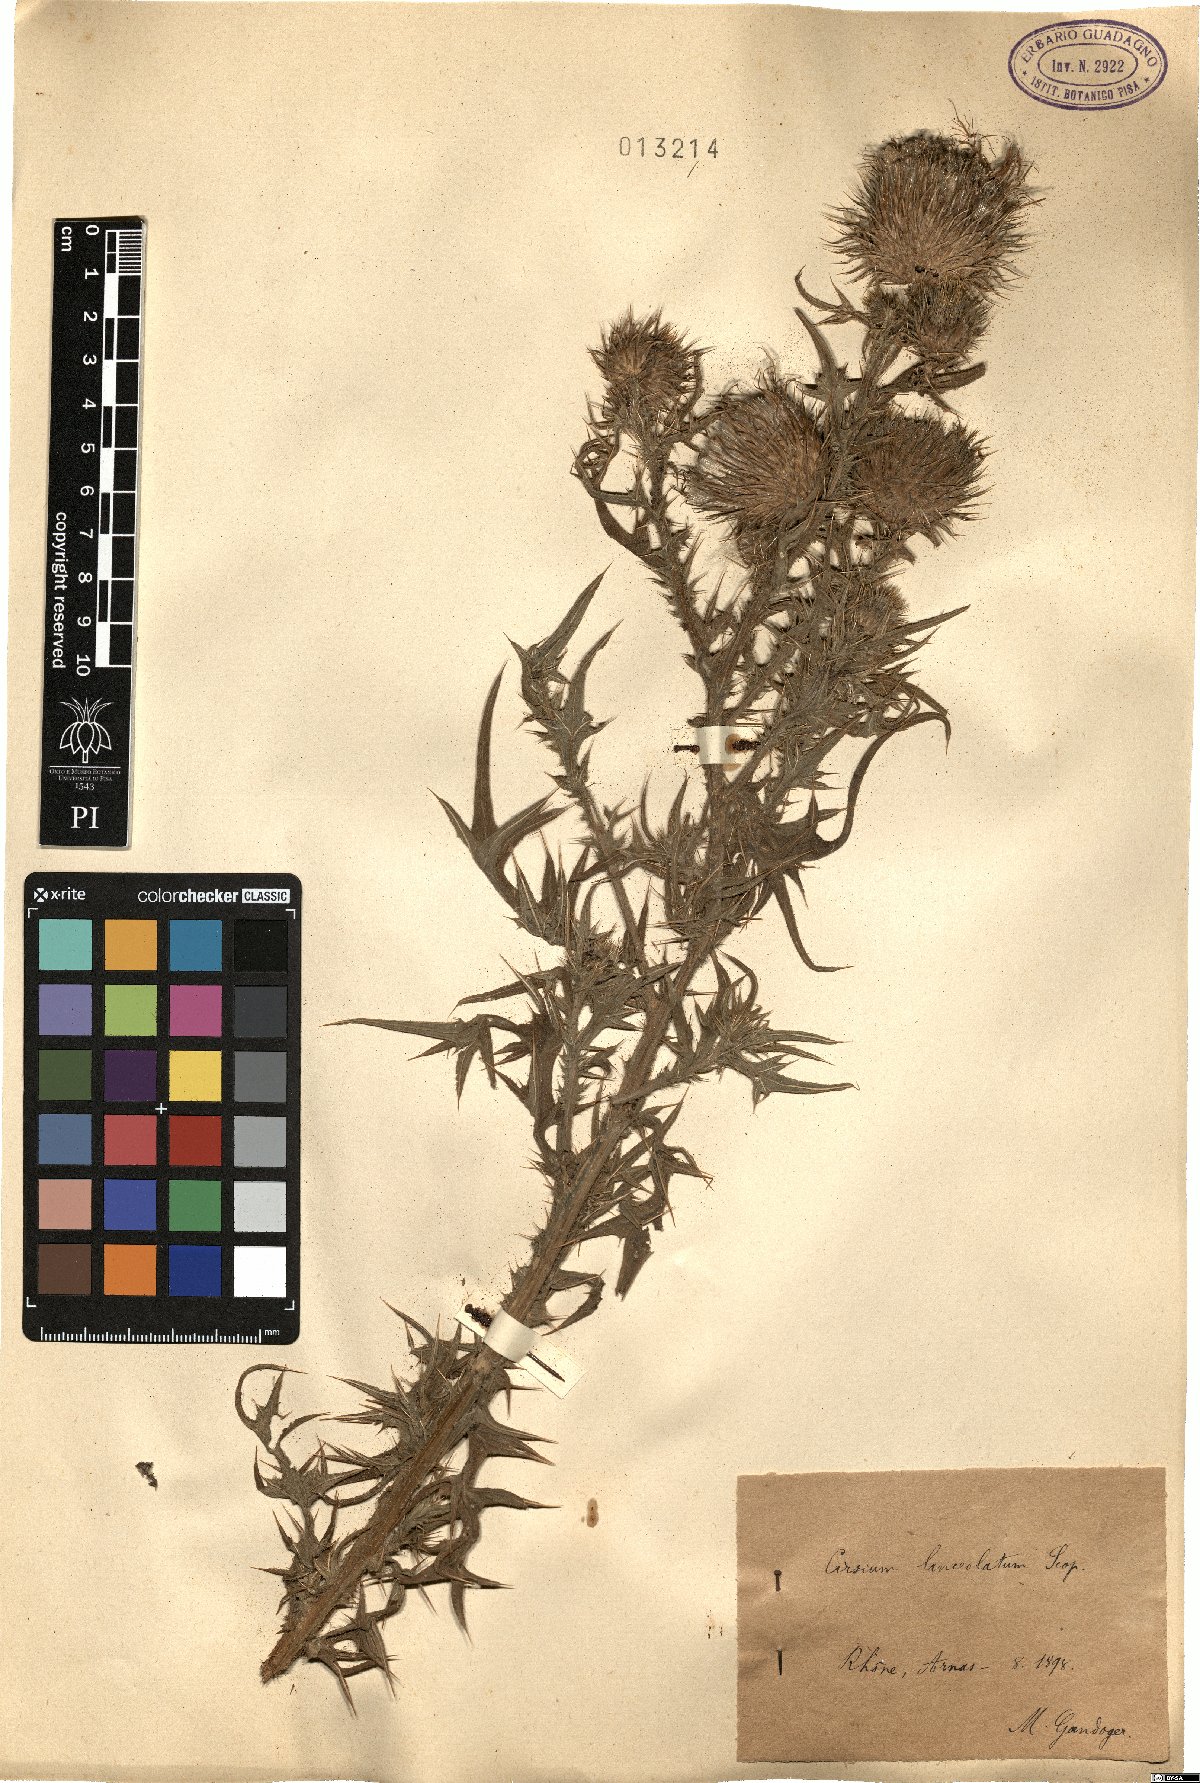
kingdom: Plantae
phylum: Tracheophyta
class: Magnoliopsida
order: Asterales
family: Asteraceae
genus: Cirsium
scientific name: Cirsium vulgare
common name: Bull thistle
